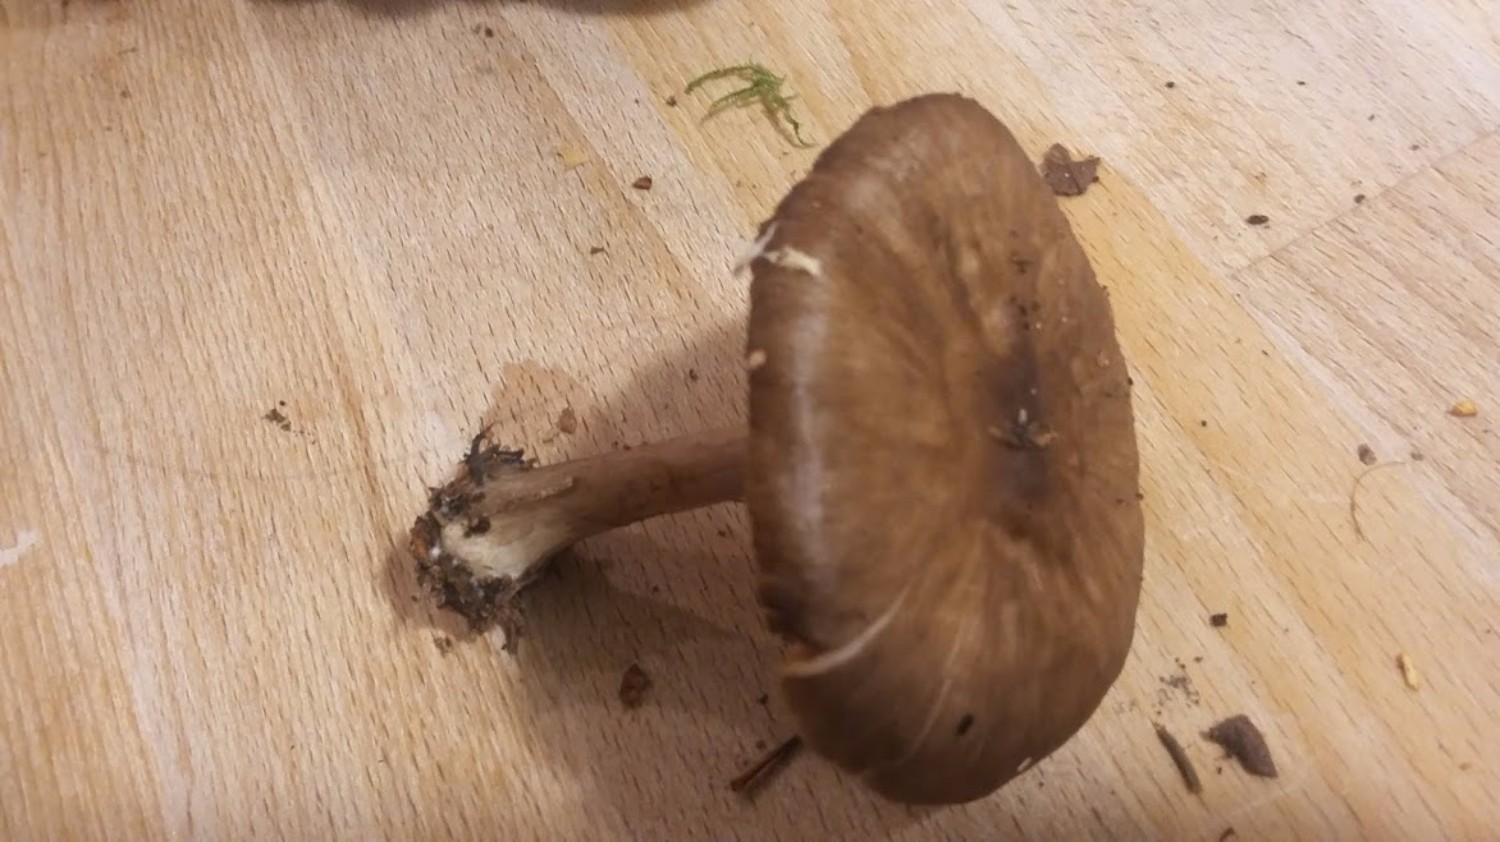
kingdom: Fungi
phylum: Basidiomycota
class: Agaricomycetes
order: Agaricales
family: Pluteaceae
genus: Pluteus
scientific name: Pluteus
